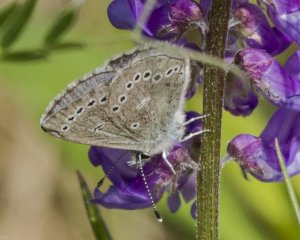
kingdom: Animalia
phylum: Arthropoda
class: Insecta
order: Lepidoptera
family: Lycaenidae
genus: Glaucopsyche
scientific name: Glaucopsyche lygdamus
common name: Silvery Blue
